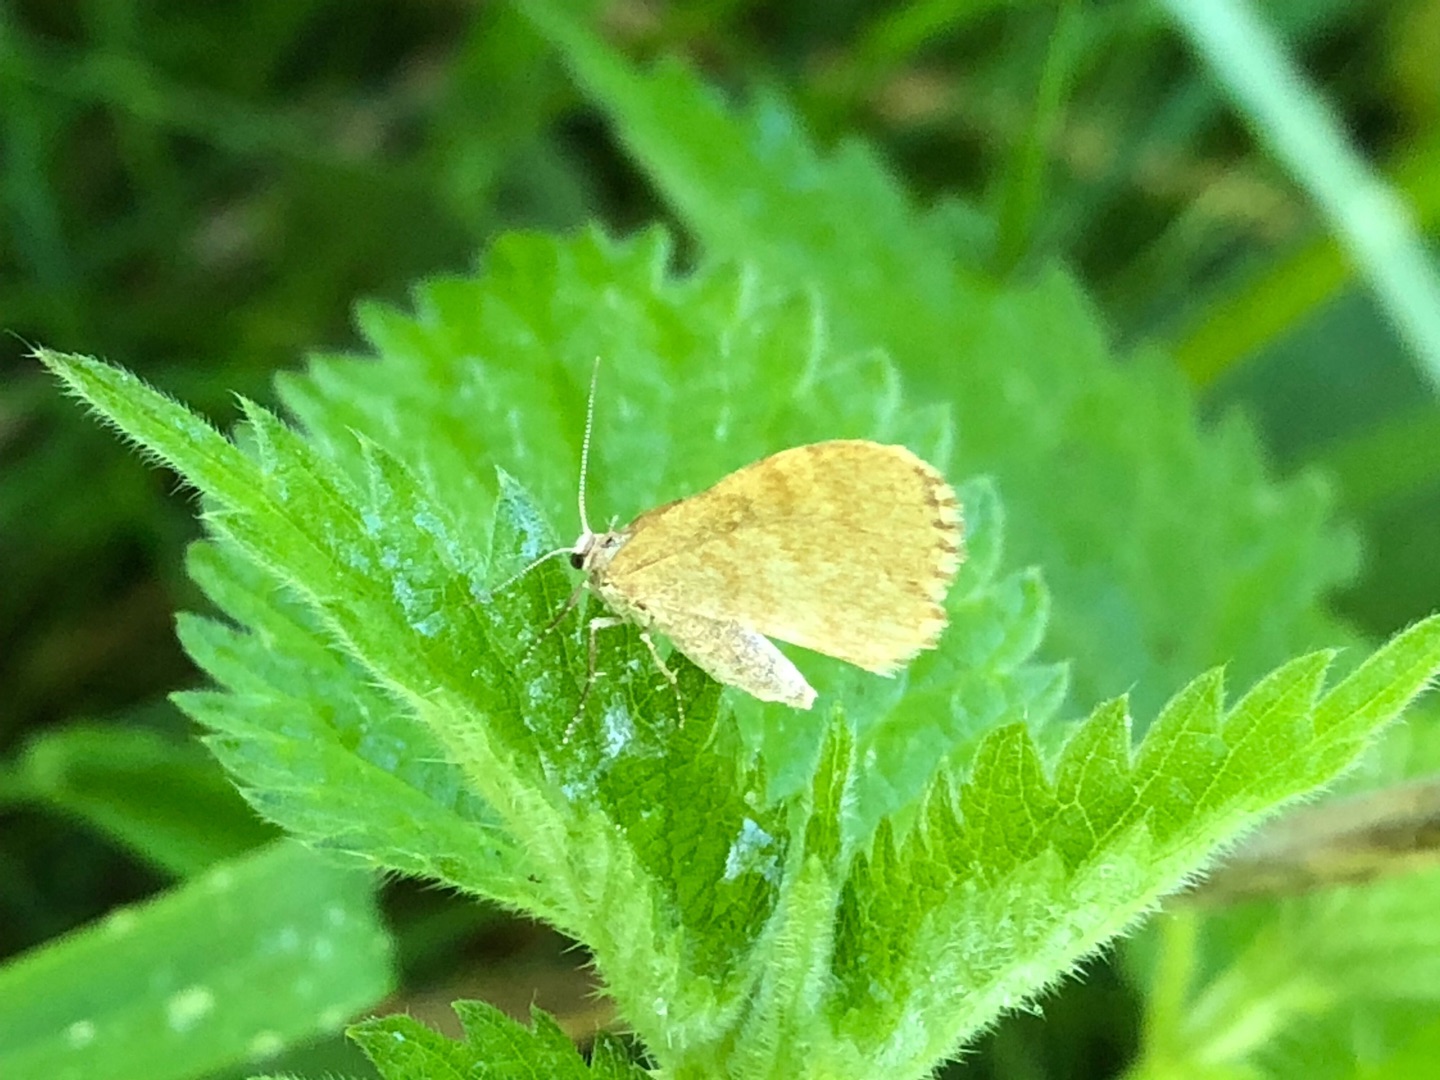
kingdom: Animalia
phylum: Arthropoda
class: Insecta
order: Lepidoptera
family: Geometridae
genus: Euchoeca
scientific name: Euchoeca nebulata
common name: Lille kratmåler
